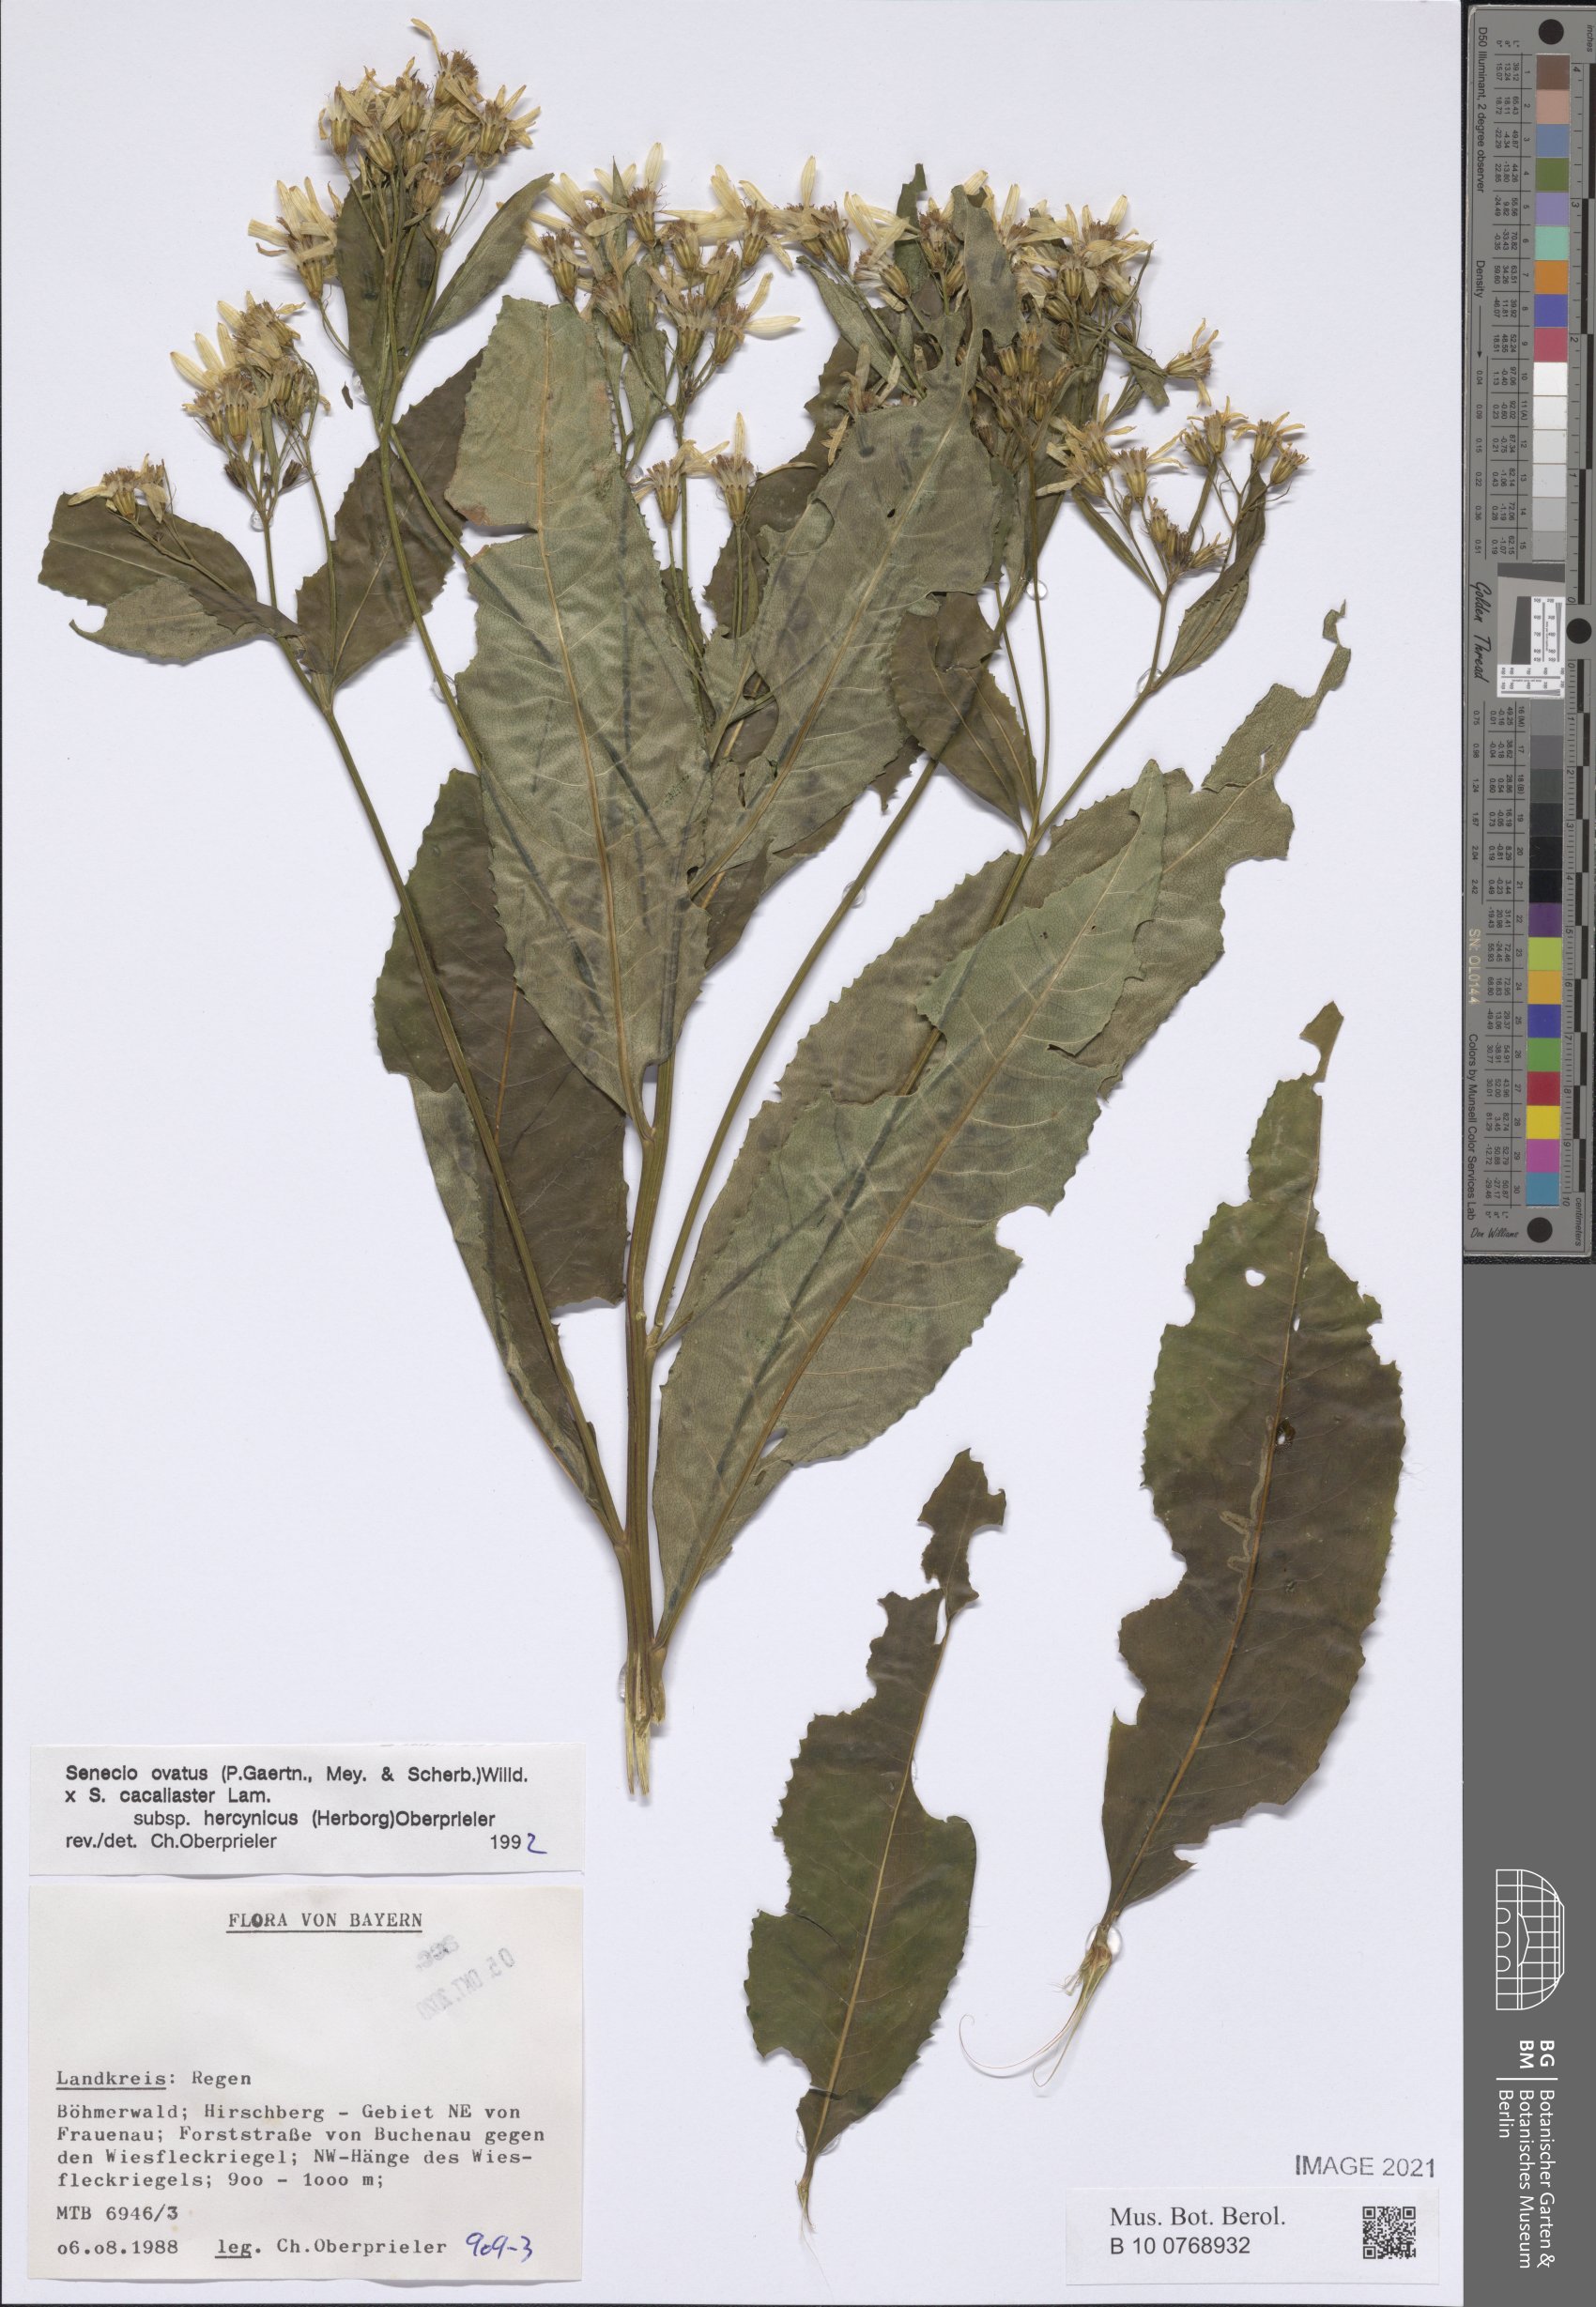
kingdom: Plantae
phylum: Tracheophyta
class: Magnoliopsida
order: Asterales
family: Asteraceae
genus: Senecio
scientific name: Senecio ovatus
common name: Wood ragwort
